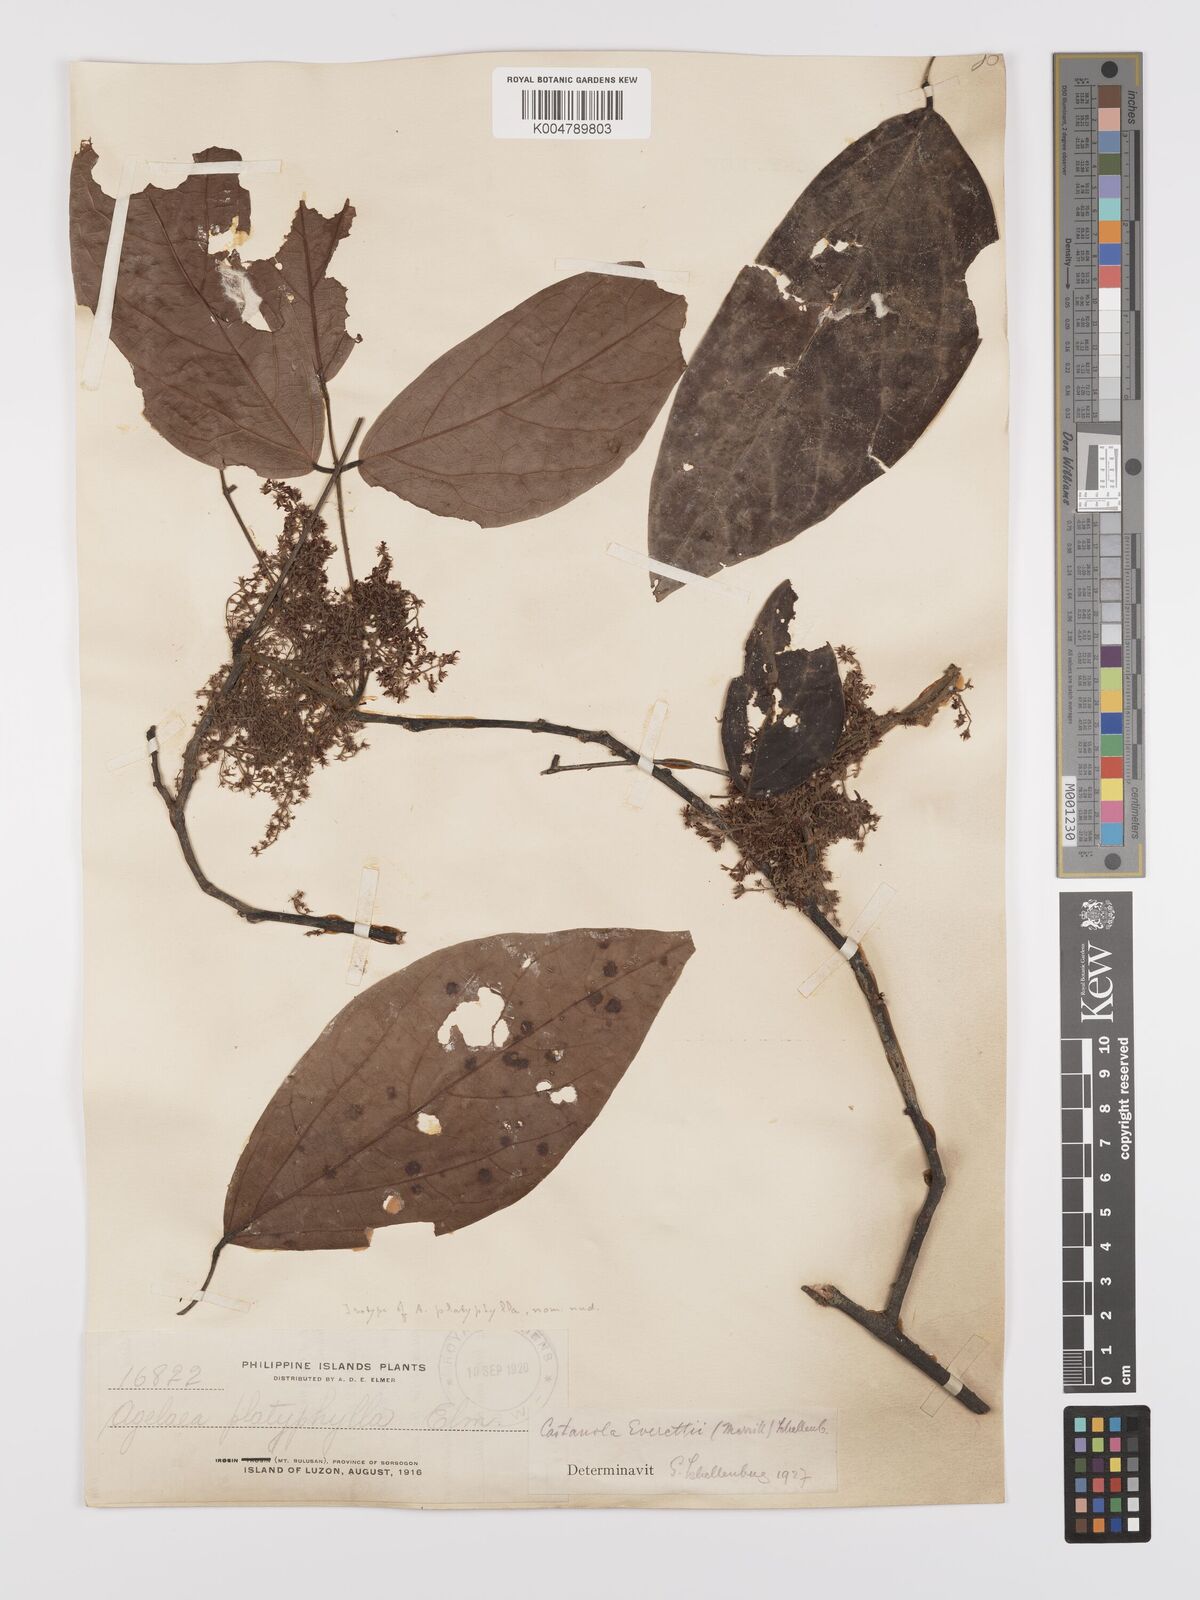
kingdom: Plantae
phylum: Tracheophyta
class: Magnoliopsida
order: Oxalidales
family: Connaraceae
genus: Agelaea
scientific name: Agelaea borneensis
